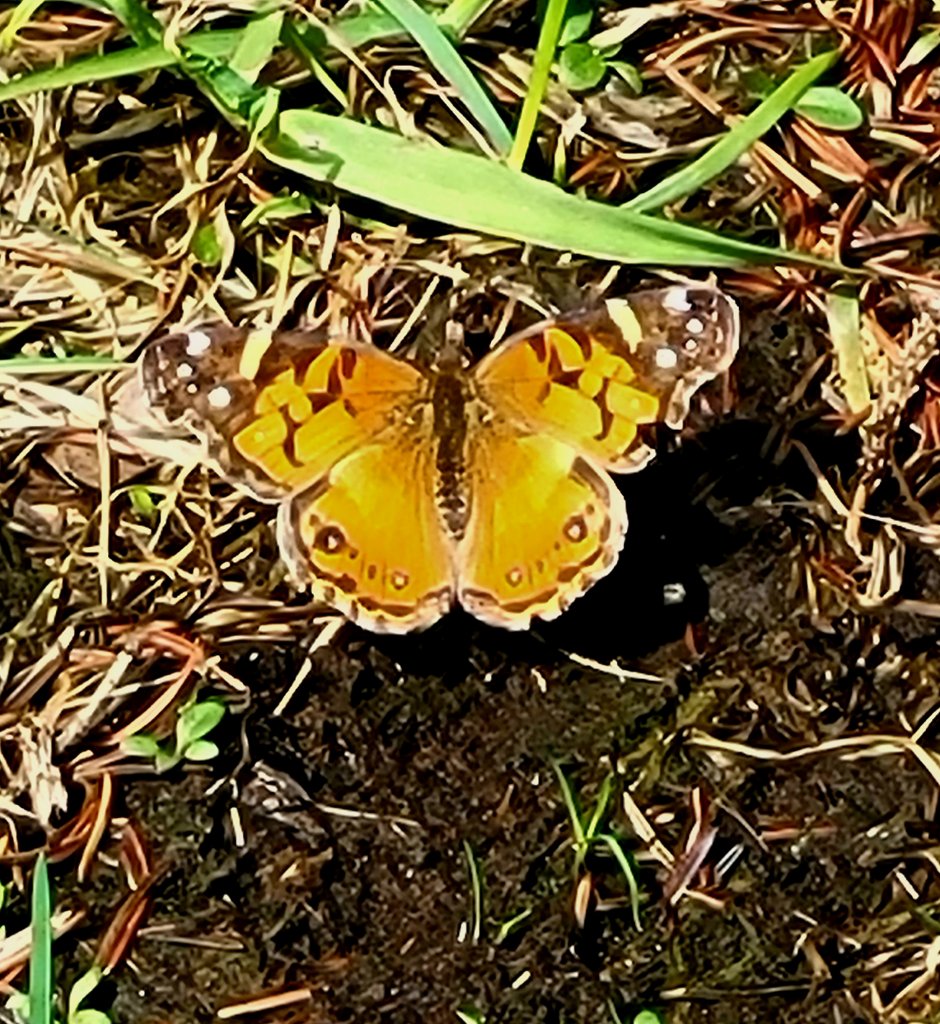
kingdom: Animalia
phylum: Arthropoda
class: Insecta
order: Lepidoptera
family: Nymphalidae
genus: Vanessa
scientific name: Vanessa virginiensis
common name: American Lady
